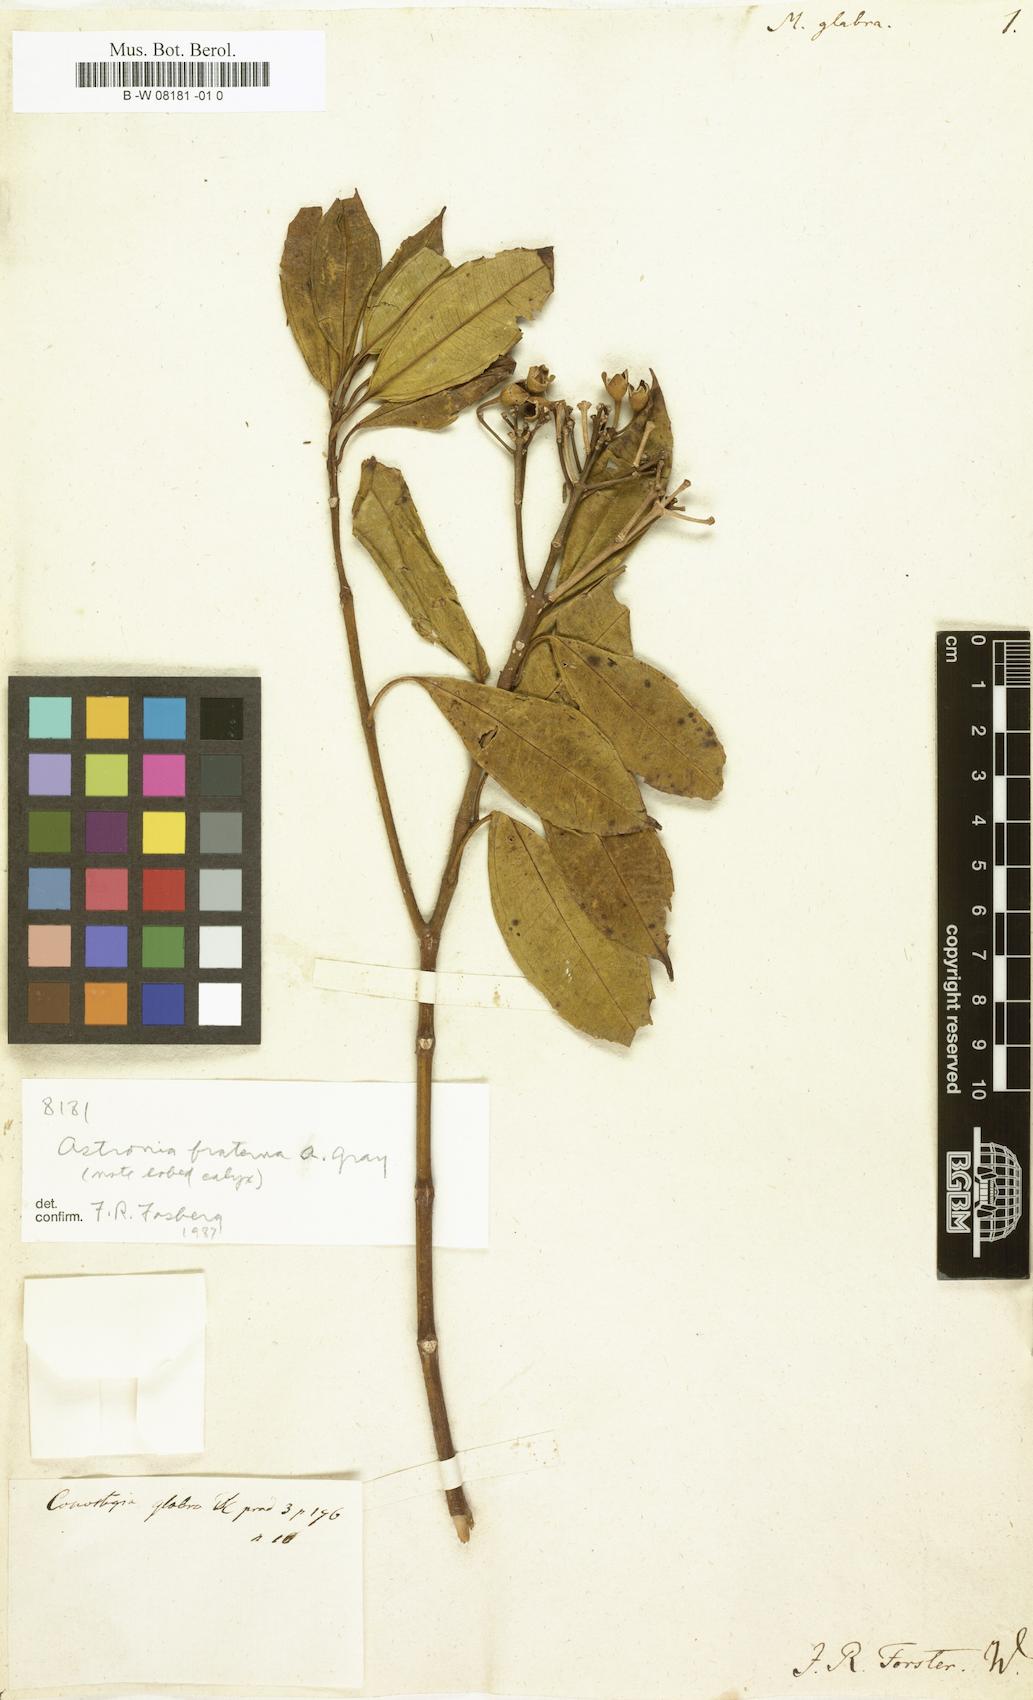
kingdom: Plantae
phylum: Tracheophyta
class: Magnoliopsida
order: Myrtales
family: Melastomataceae
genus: Astronidium
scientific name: Astronidium glabrum
